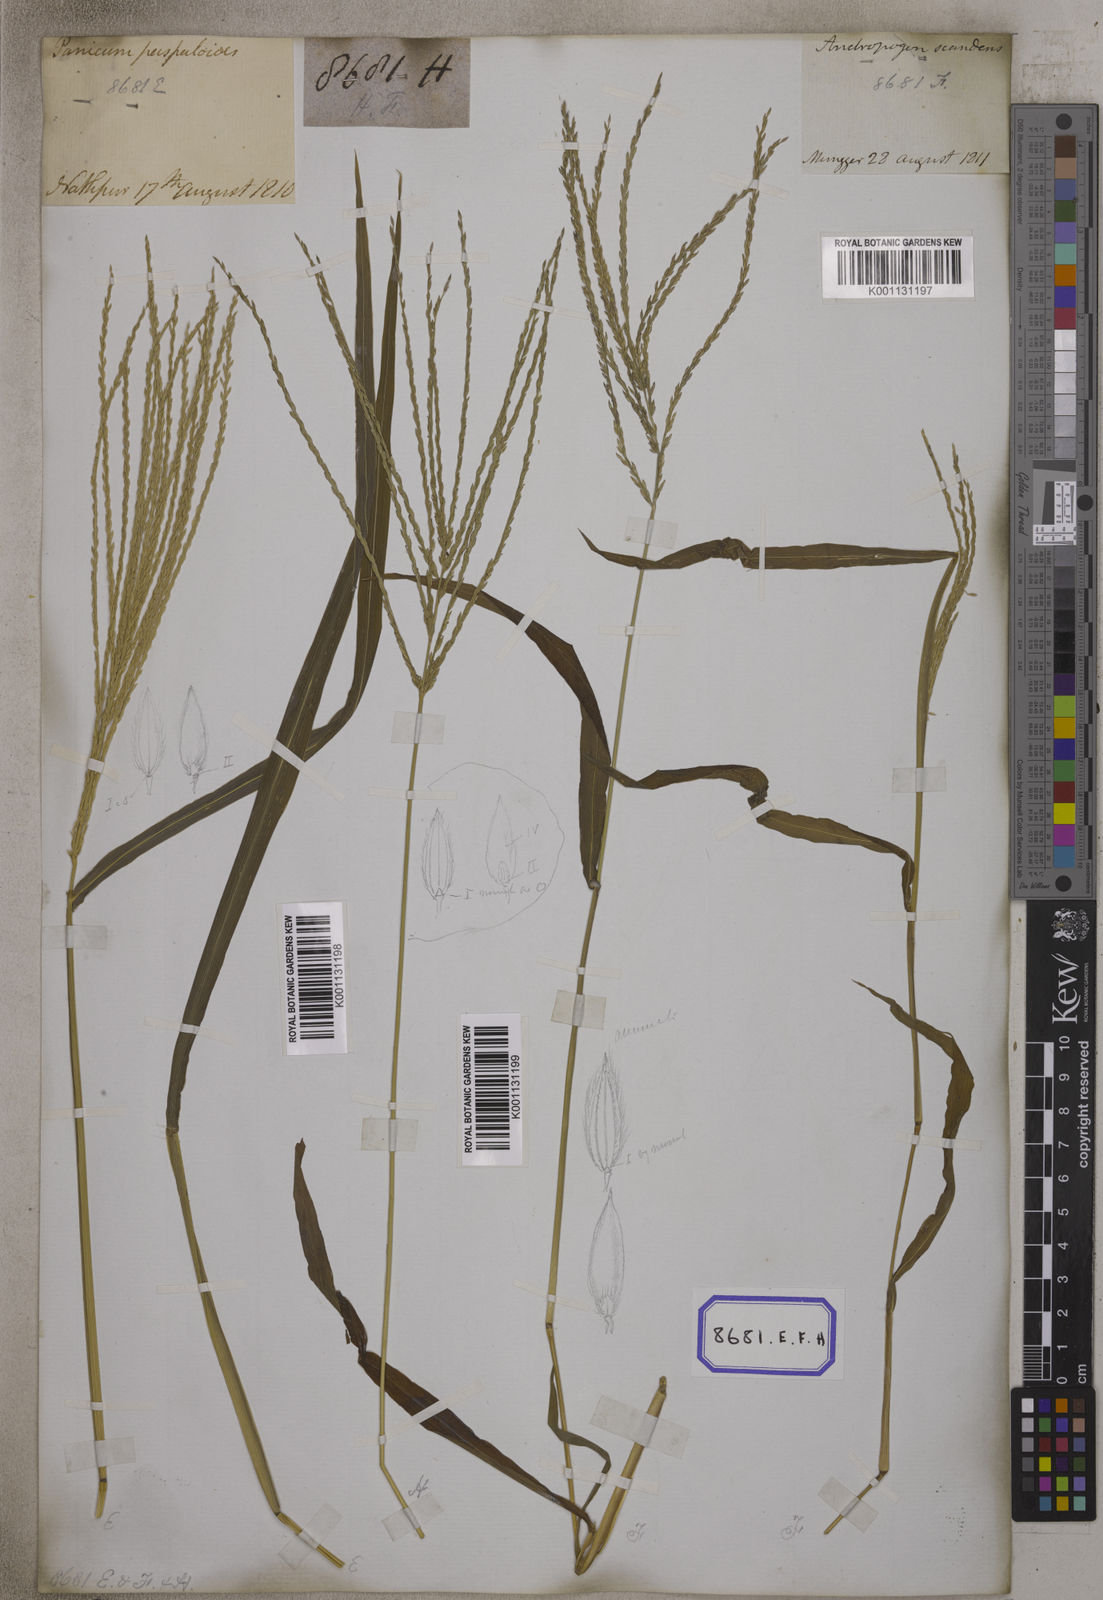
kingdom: Plantae
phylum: Tracheophyta
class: Liliopsida
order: Poales
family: Poaceae
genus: Digitaria
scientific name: Digitaria sanguinalis
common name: Hairy crabgrass
